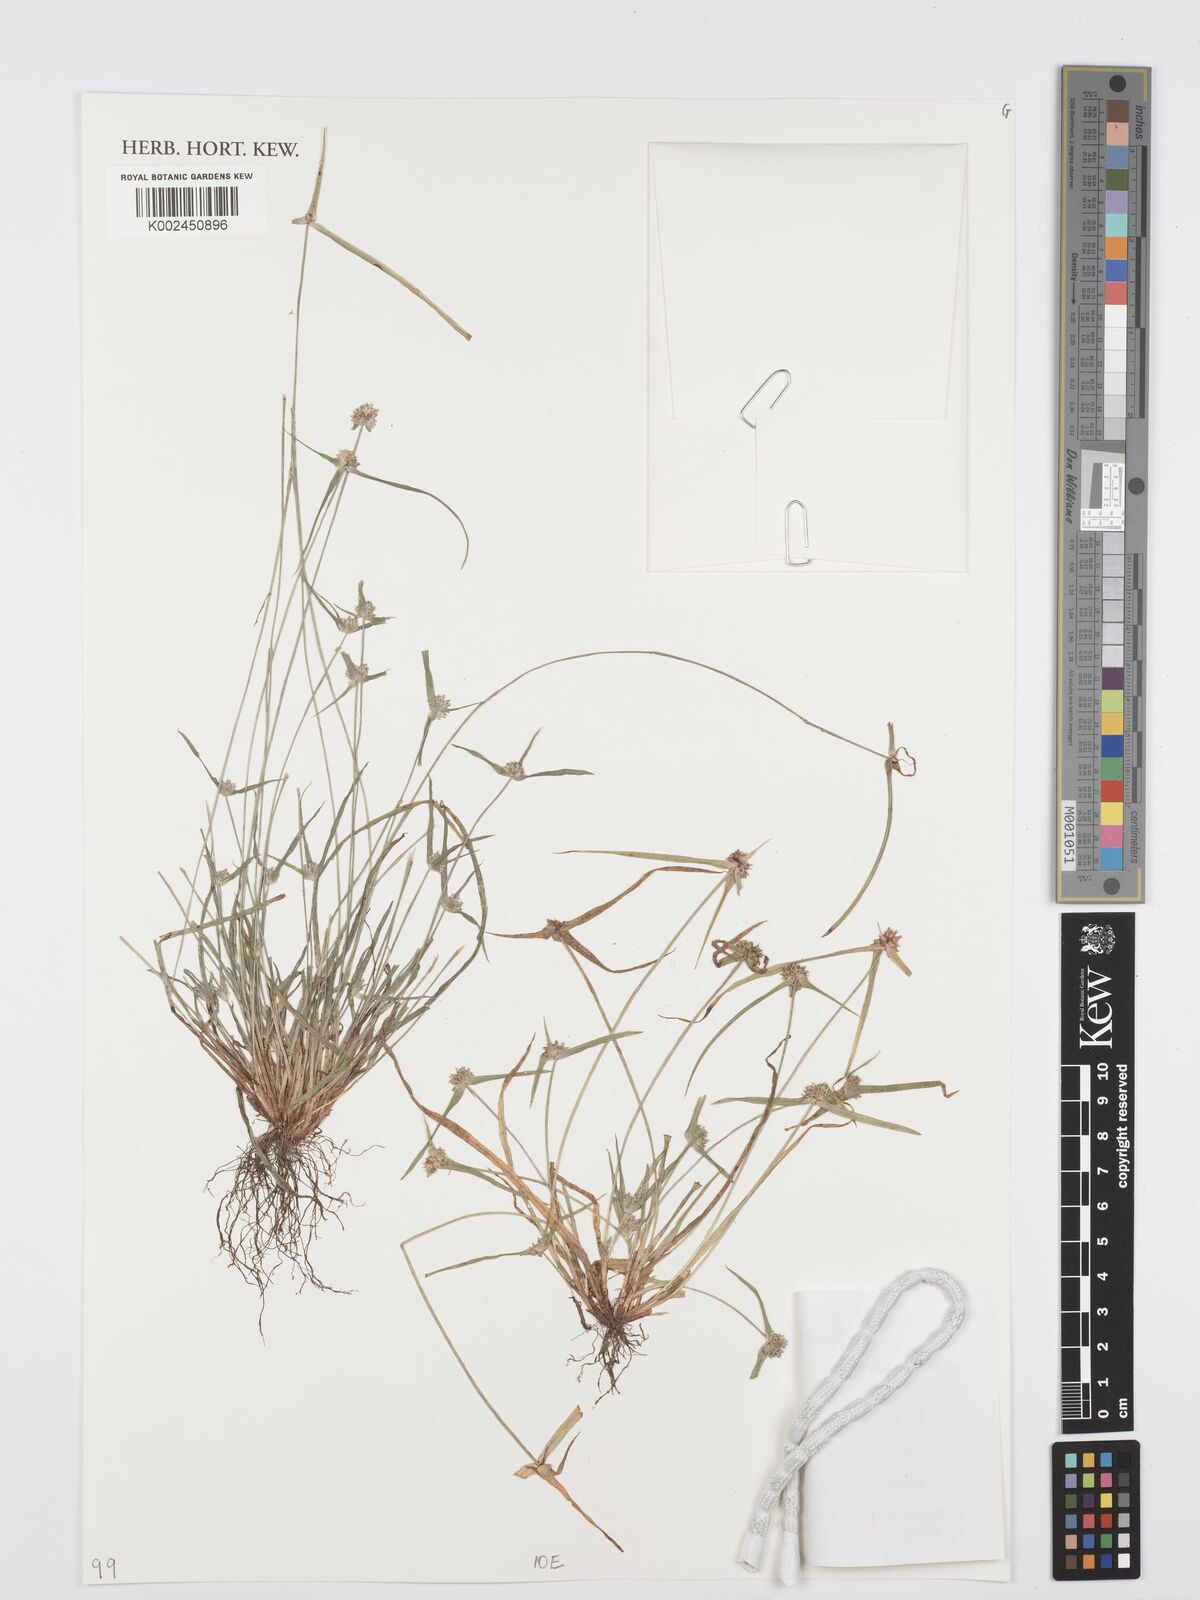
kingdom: Plantae
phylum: Tracheophyta
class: Liliopsida
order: Poales
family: Cyperaceae
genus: Cyperus
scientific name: Cyperus distans
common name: Slender cyperus
